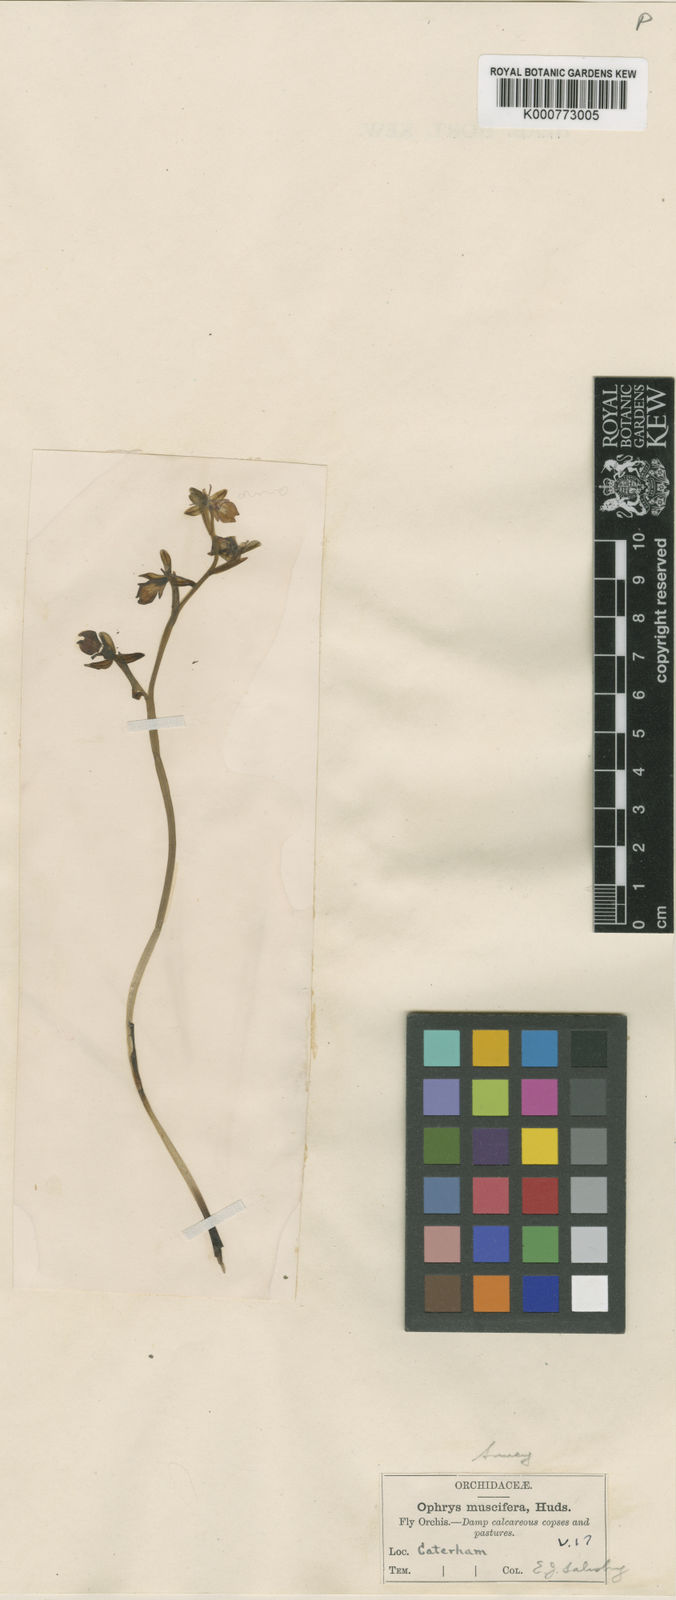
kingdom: Plantae
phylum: Tracheophyta
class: Liliopsida
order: Asparagales
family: Orchidaceae
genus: Ophrys
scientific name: Ophrys insectifera
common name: Fly orchid
